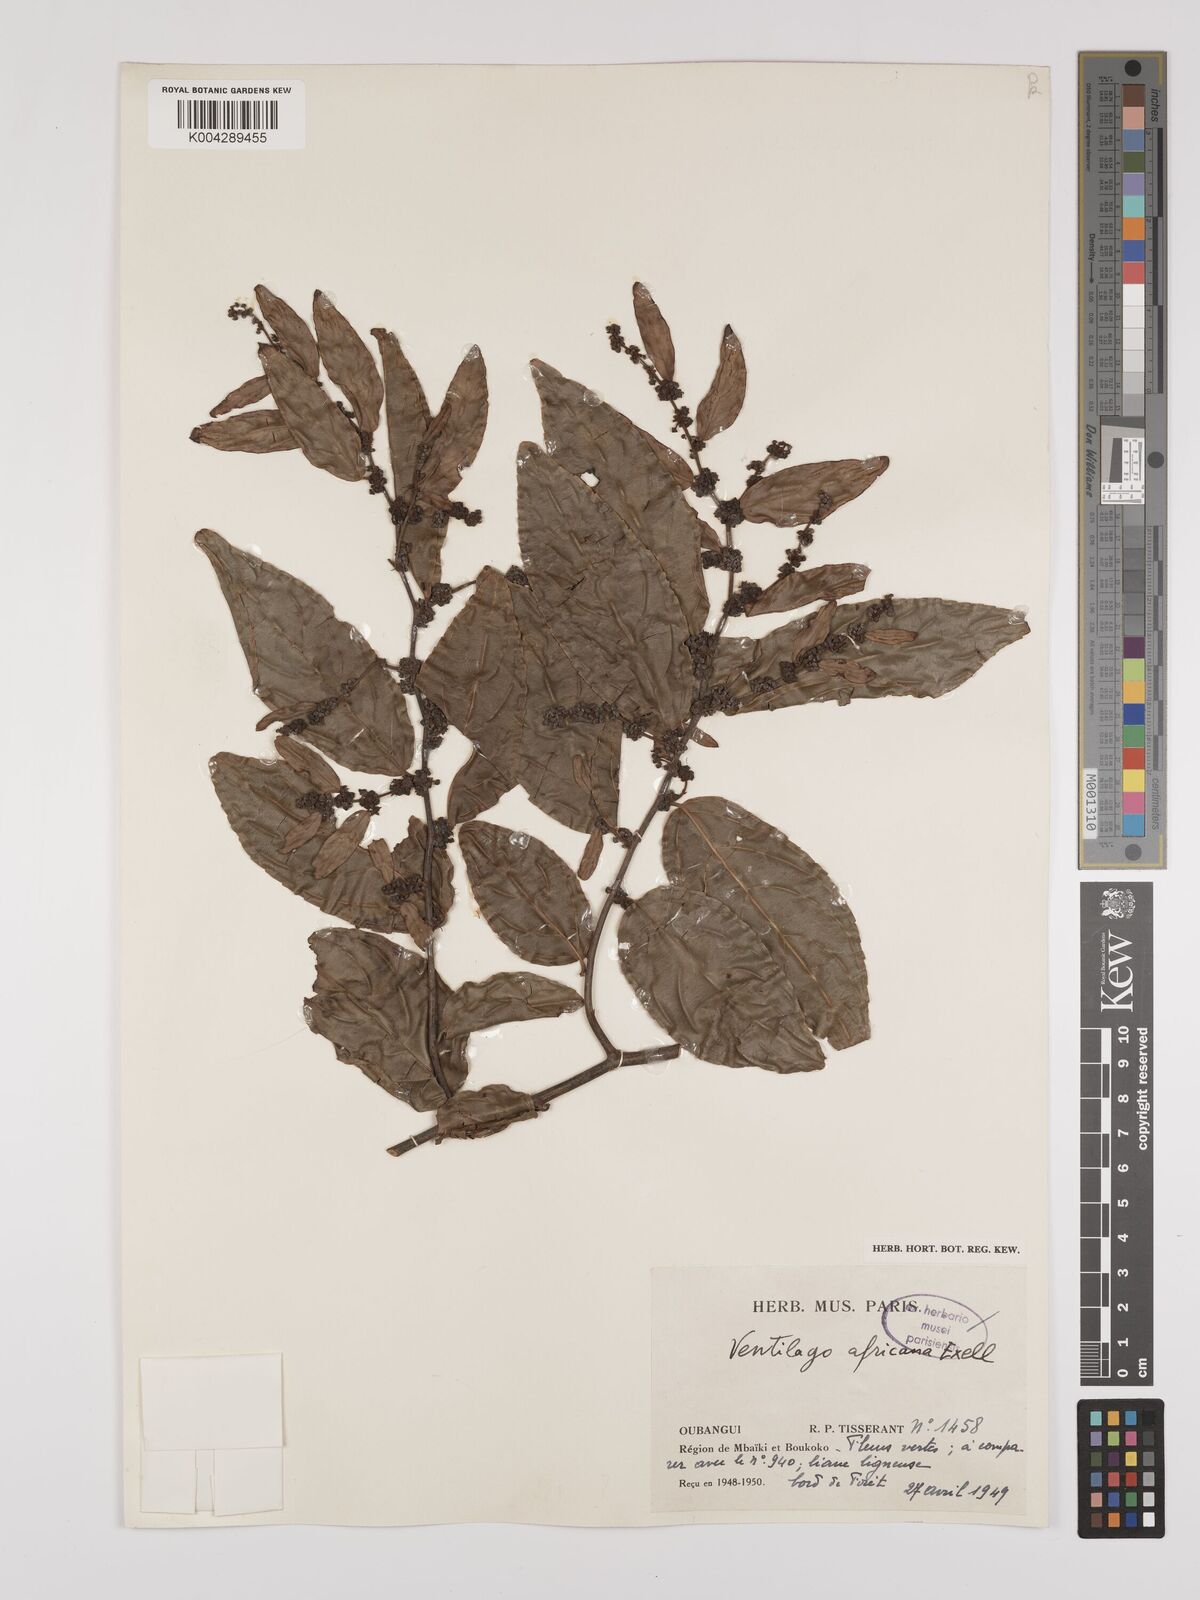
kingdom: Plantae
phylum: Tracheophyta
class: Magnoliopsida
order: Rosales
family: Rhamnaceae
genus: Ventilago
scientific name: Ventilago africana
